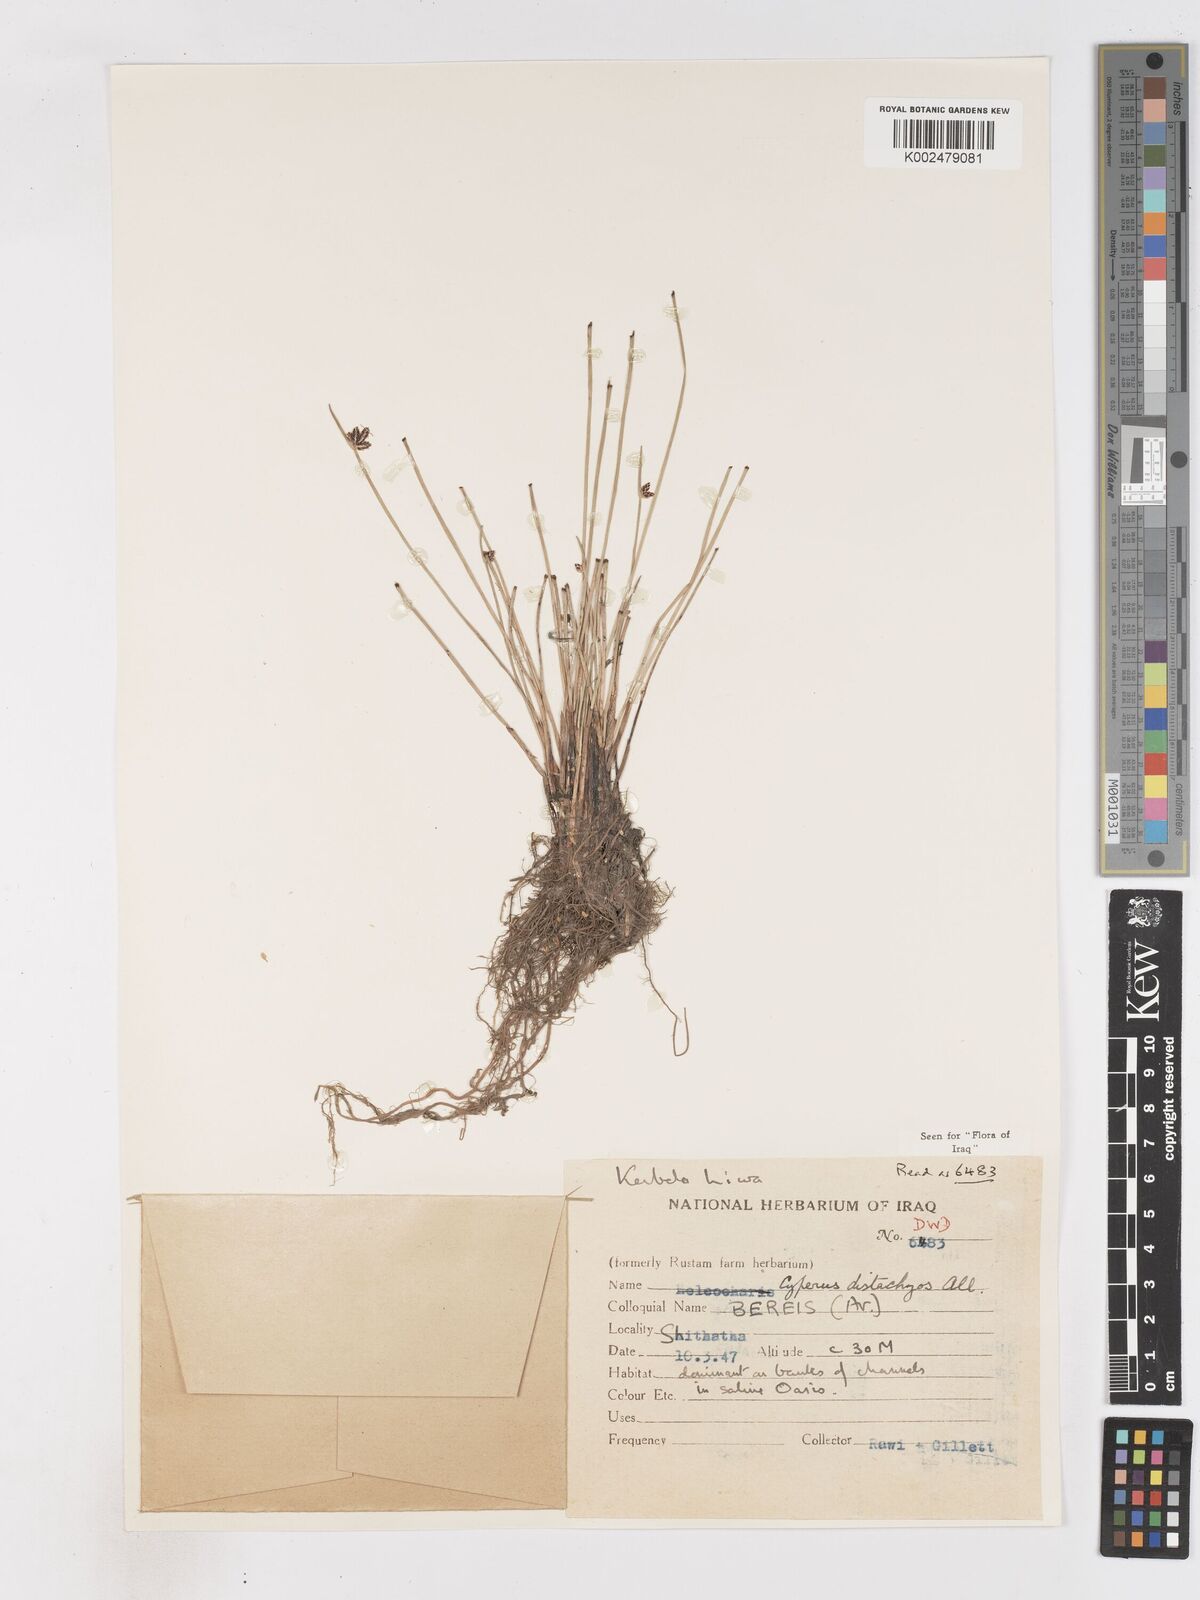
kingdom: Plantae
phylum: Tracheophyta
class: Liliopsida
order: Poales
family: Cyperaceae
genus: Cyperus
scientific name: Cyperus laevigatus
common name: Smooth flat sedge
